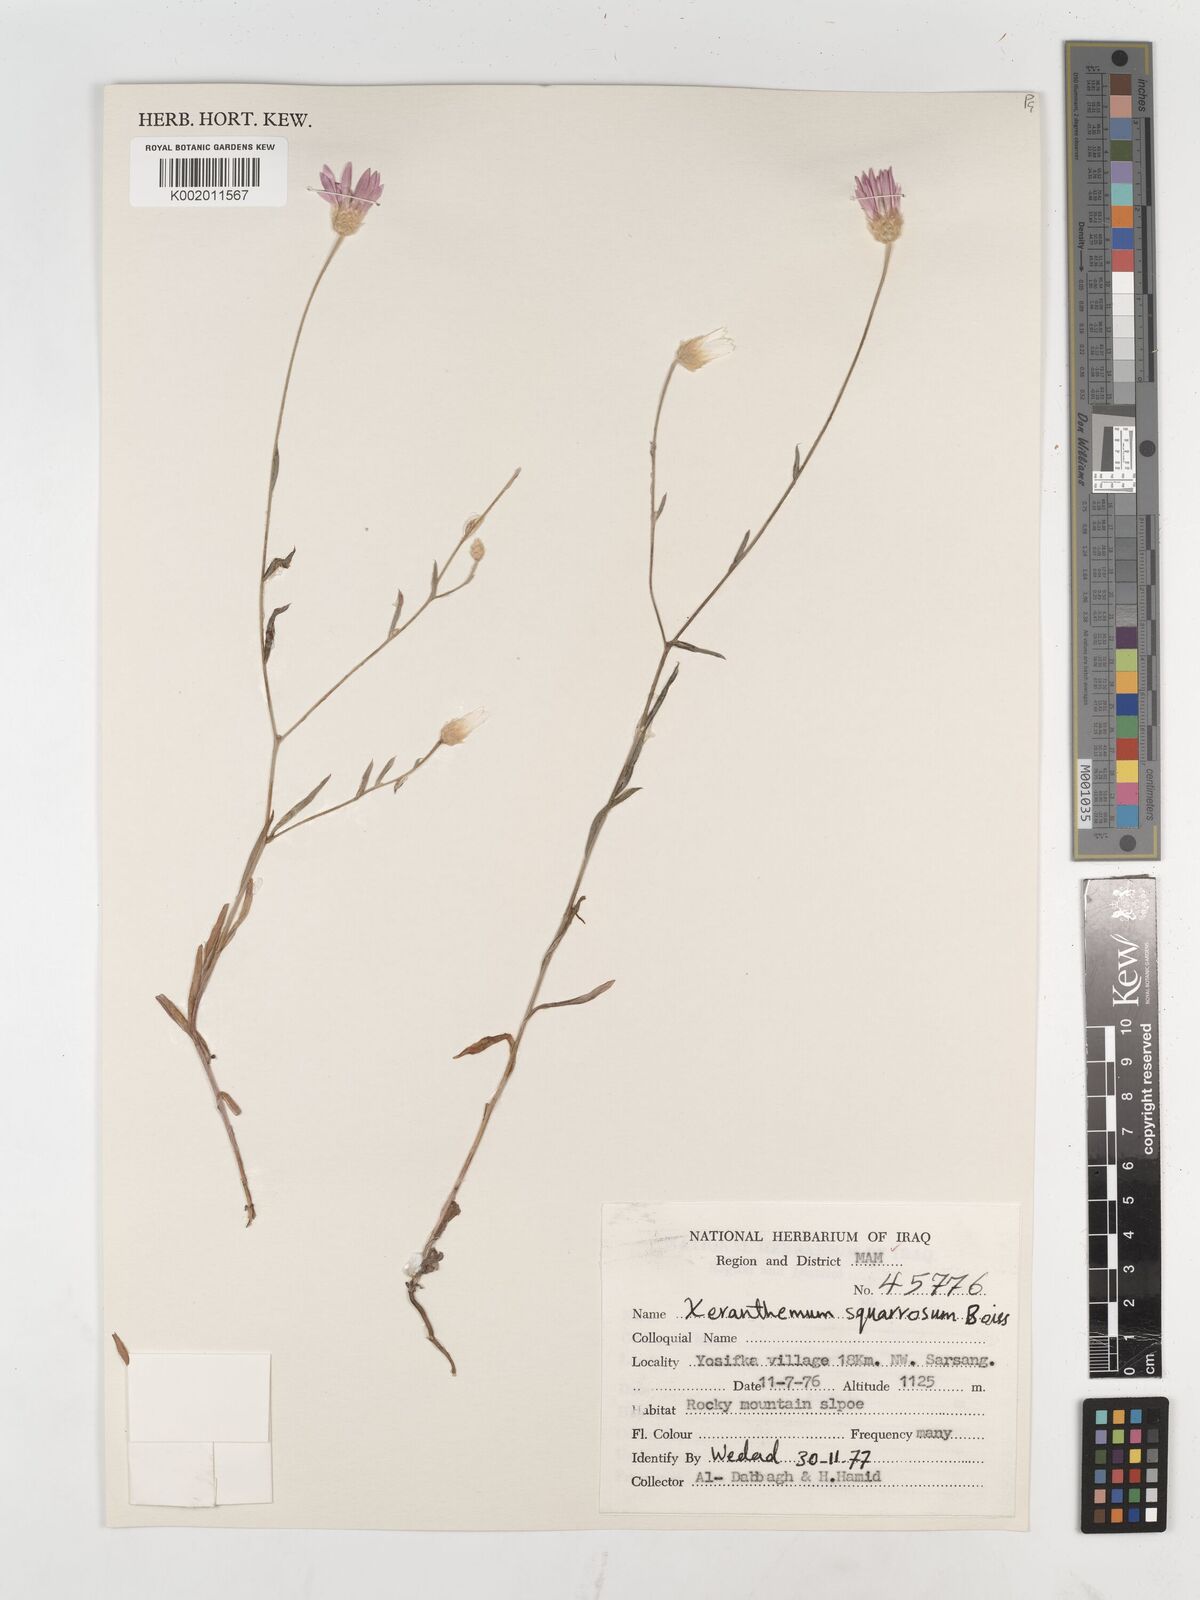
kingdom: Plantae
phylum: Tracheophyta
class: Magnoliopsida
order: Asterales
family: Asteraceae
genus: Xeranthemum
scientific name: Xeranthemum annuum
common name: Immortelle
